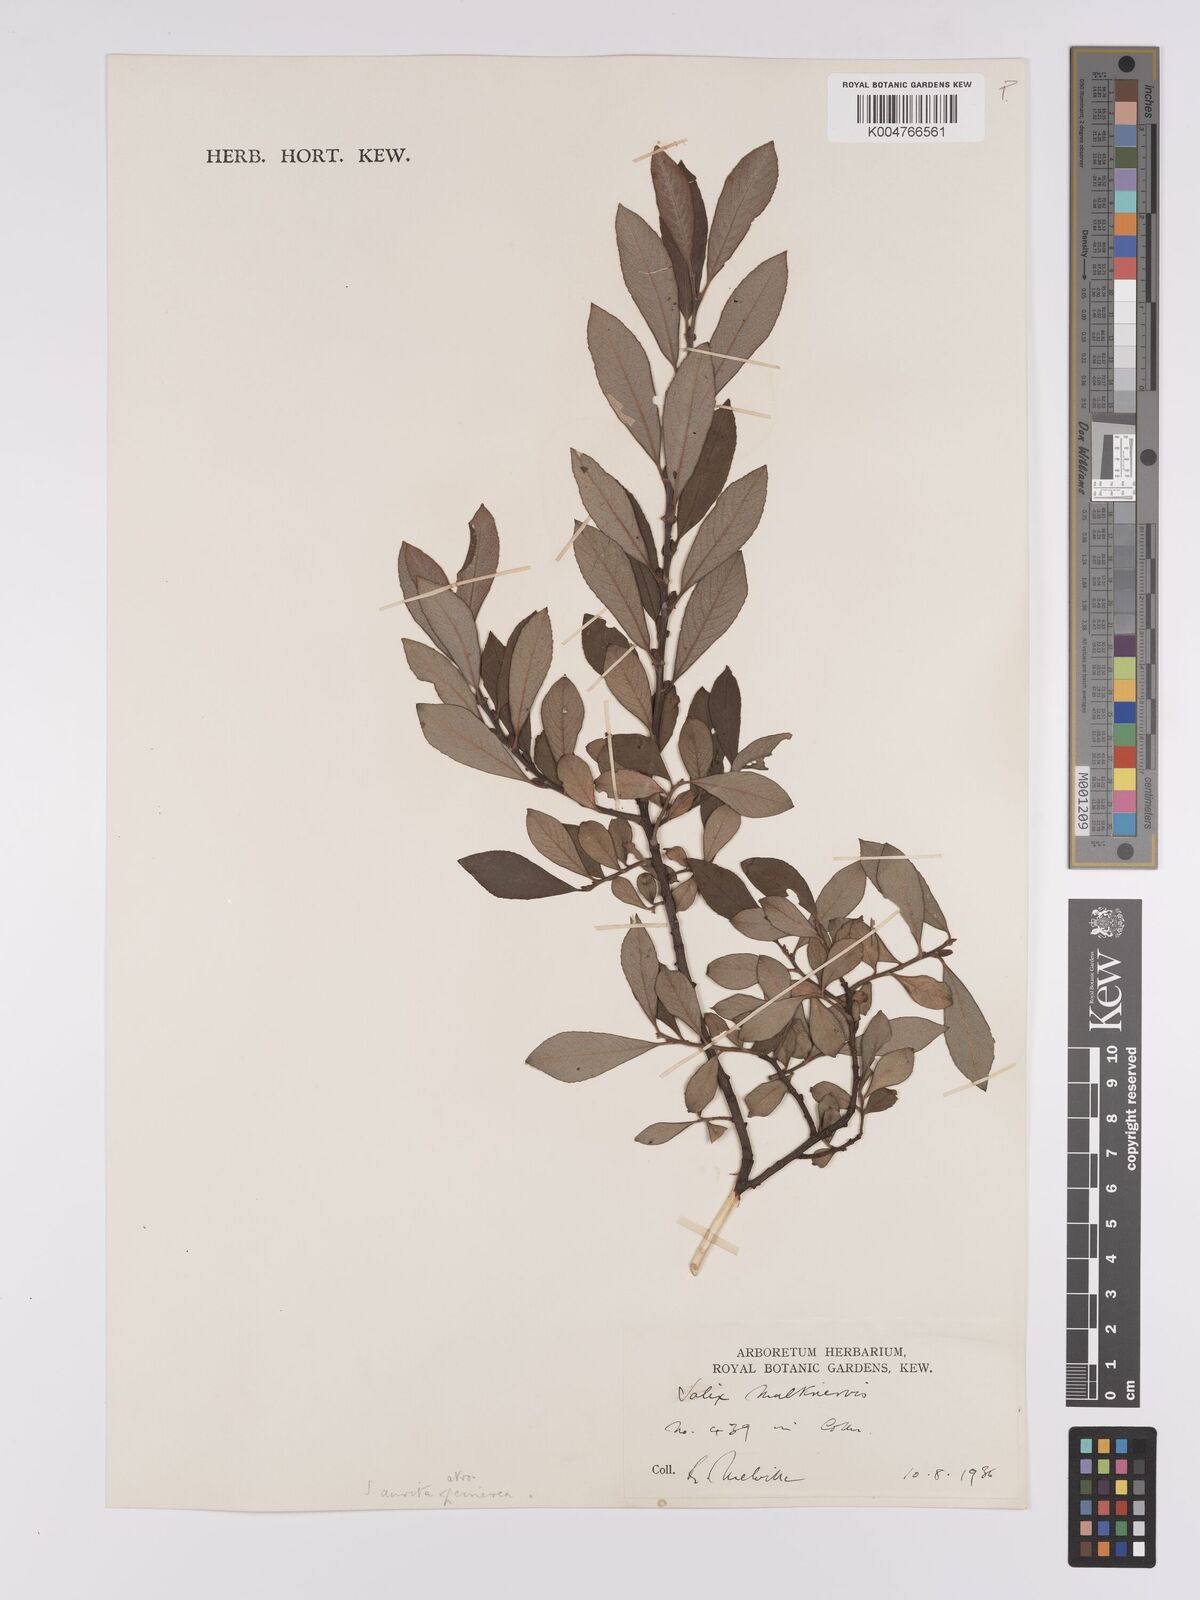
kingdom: Plantae
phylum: Tracheophyta
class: Magnoliopsida
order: Malpighiales
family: Salicaceae
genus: Salix
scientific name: Salix
